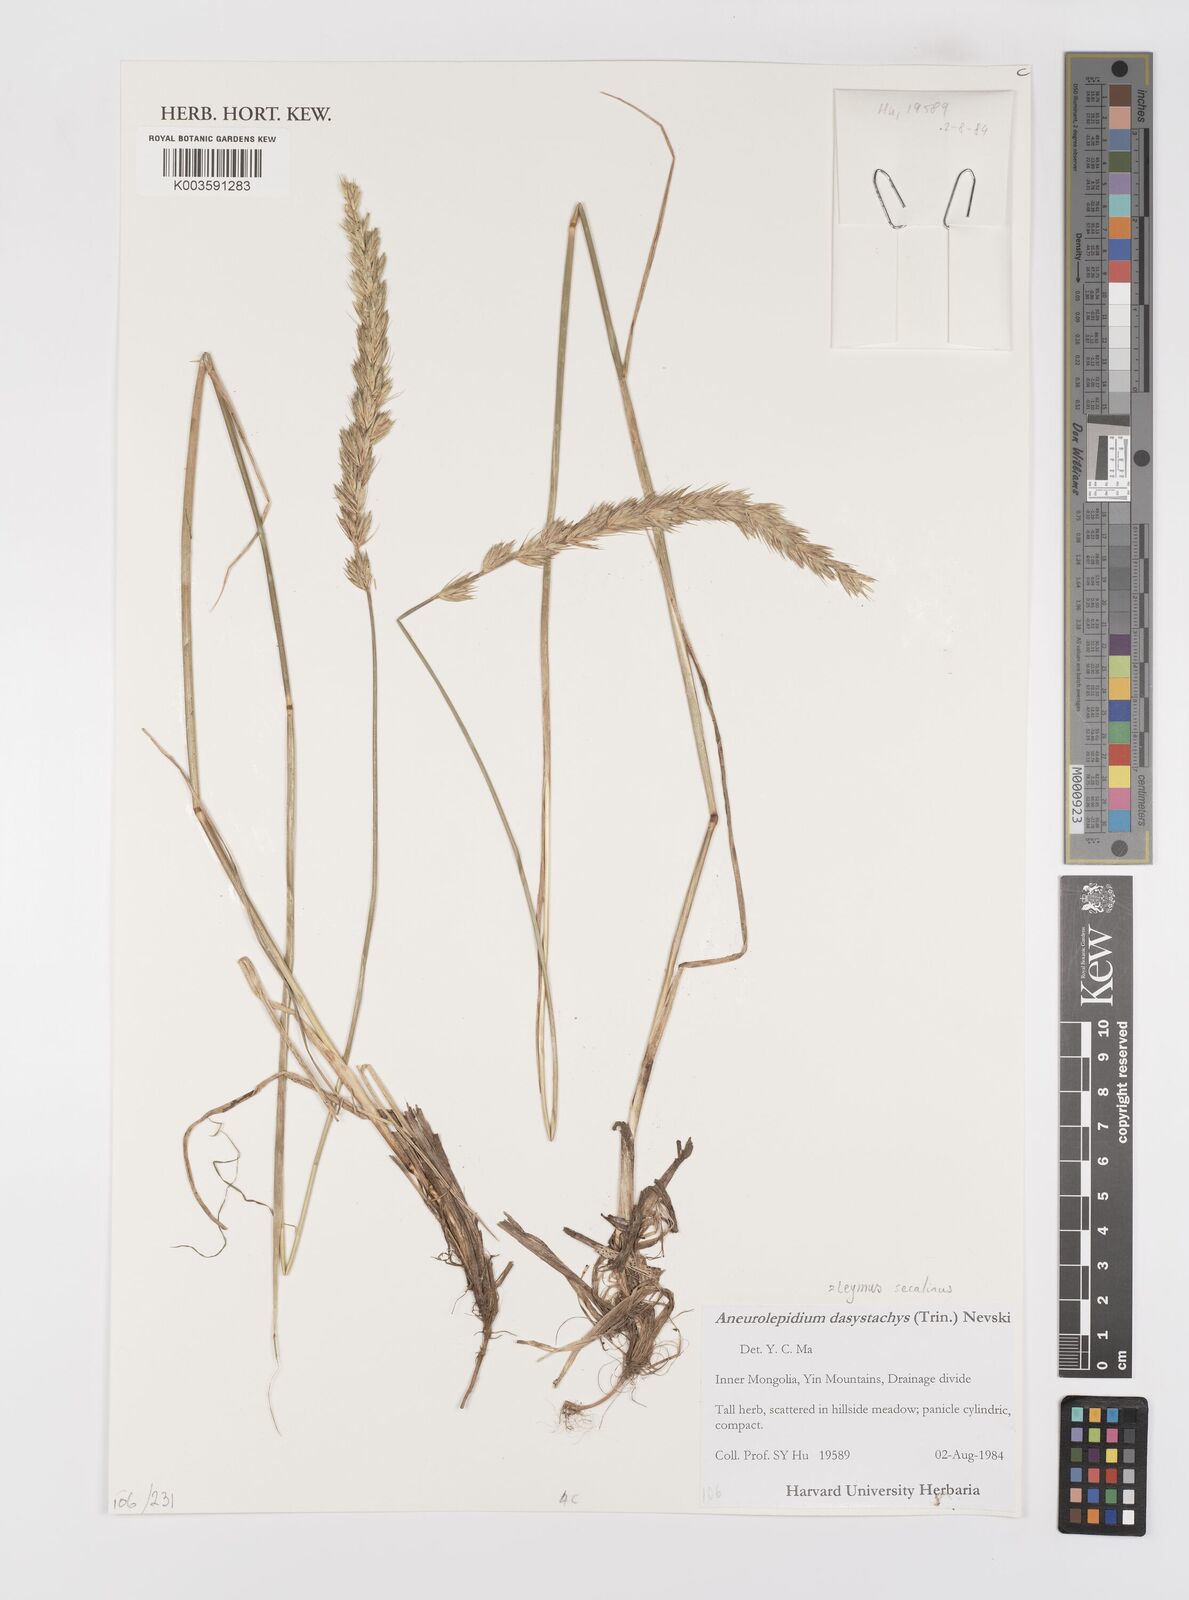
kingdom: Plantae
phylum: Tracheophyta
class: Liliopsida
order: Poales
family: Poaceae
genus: Leymus
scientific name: Leymus secalinus
